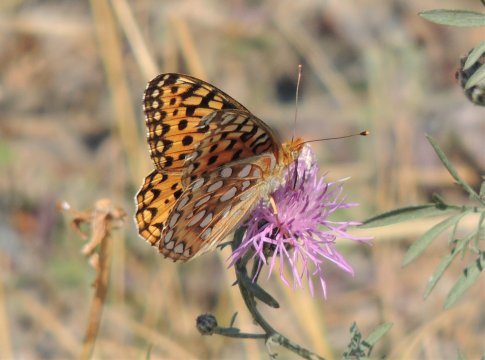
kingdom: Animalia
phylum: Arthropoda
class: Insecta
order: Lepidoptera
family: Nymphalidae
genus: Speyeria
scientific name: Speyeria coronis
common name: Coronis Fritillary
